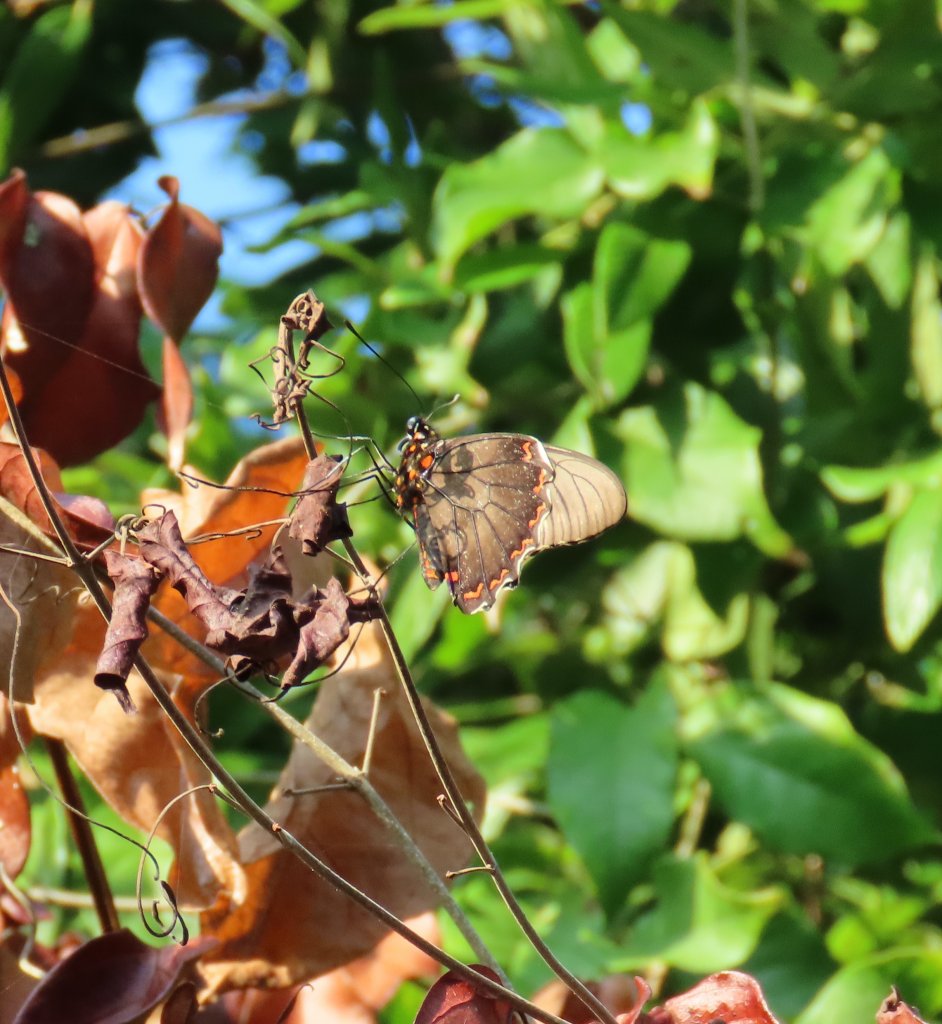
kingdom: Animalia
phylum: Arthropoda
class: Insecta
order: Lepidoptera
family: Papilionidae
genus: Battus
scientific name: Battus polydamas
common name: Polydamas Swallowtail
